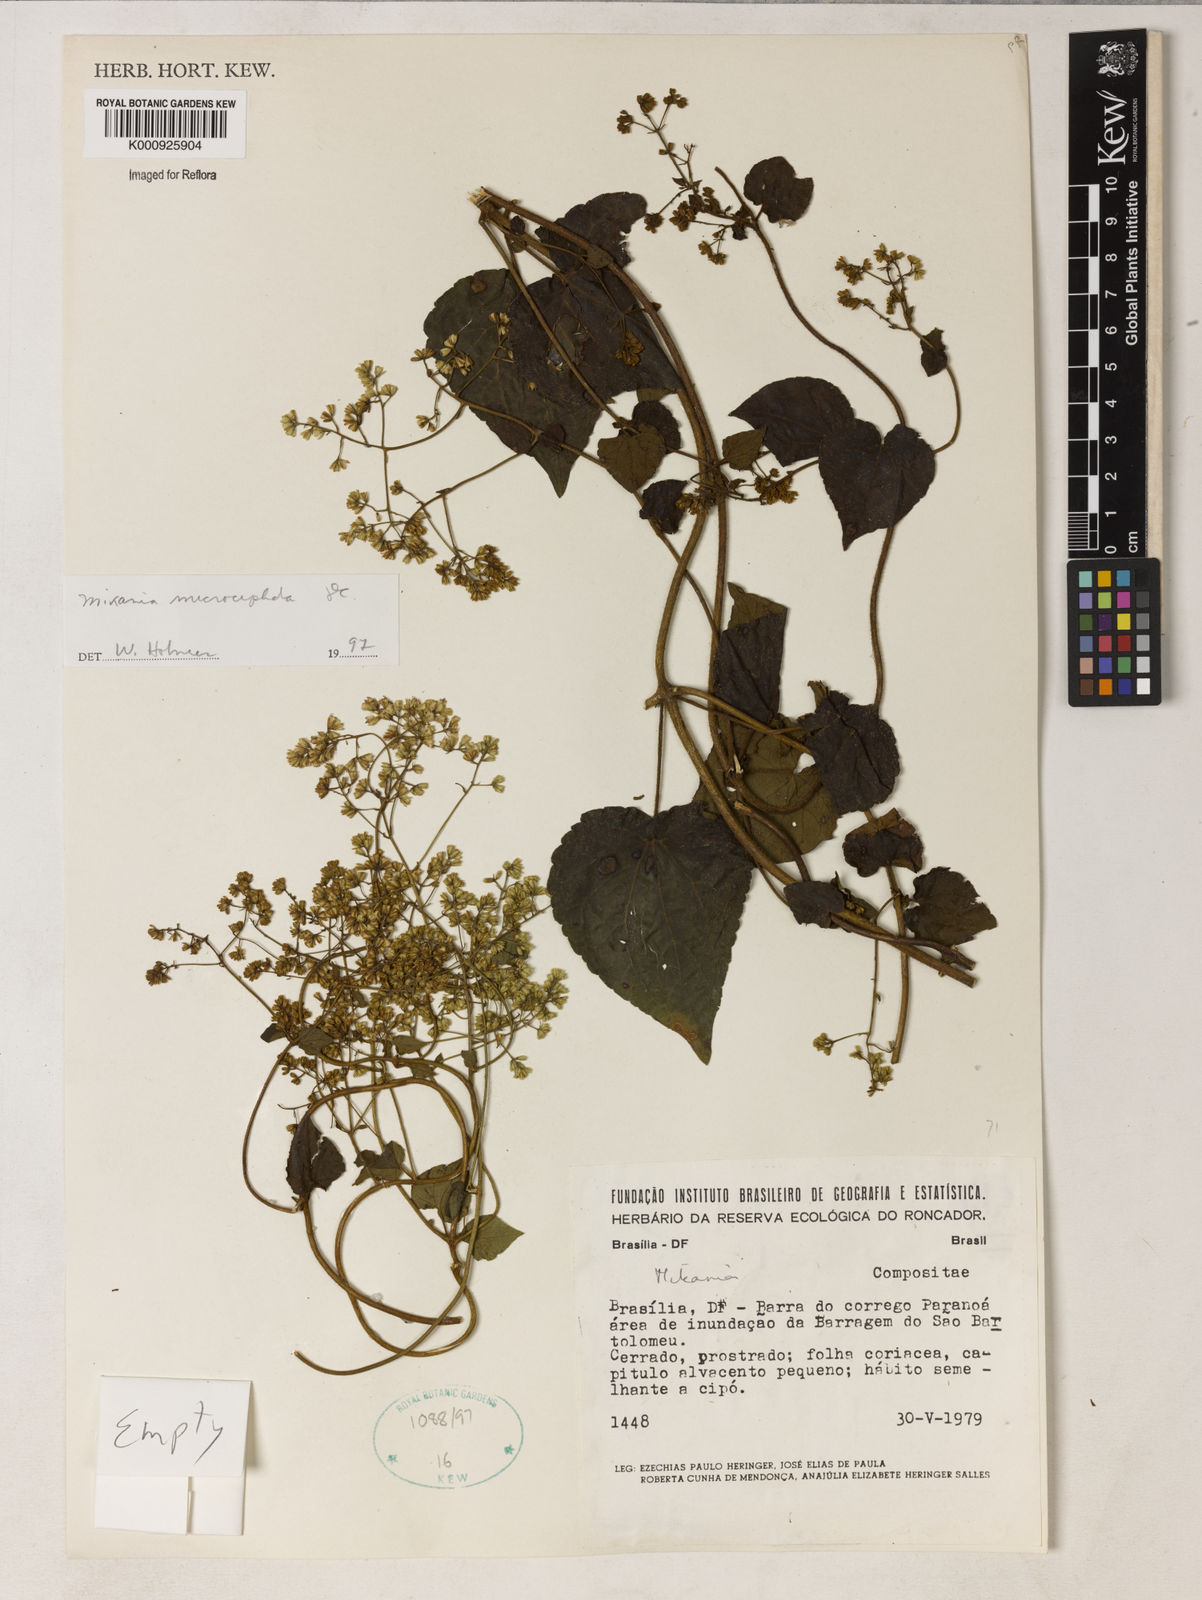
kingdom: Plantae
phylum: Tracheophyta
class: Magnoliopsida
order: Asterales
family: Asteraceae
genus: Mikania
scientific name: Mikania microcephala
